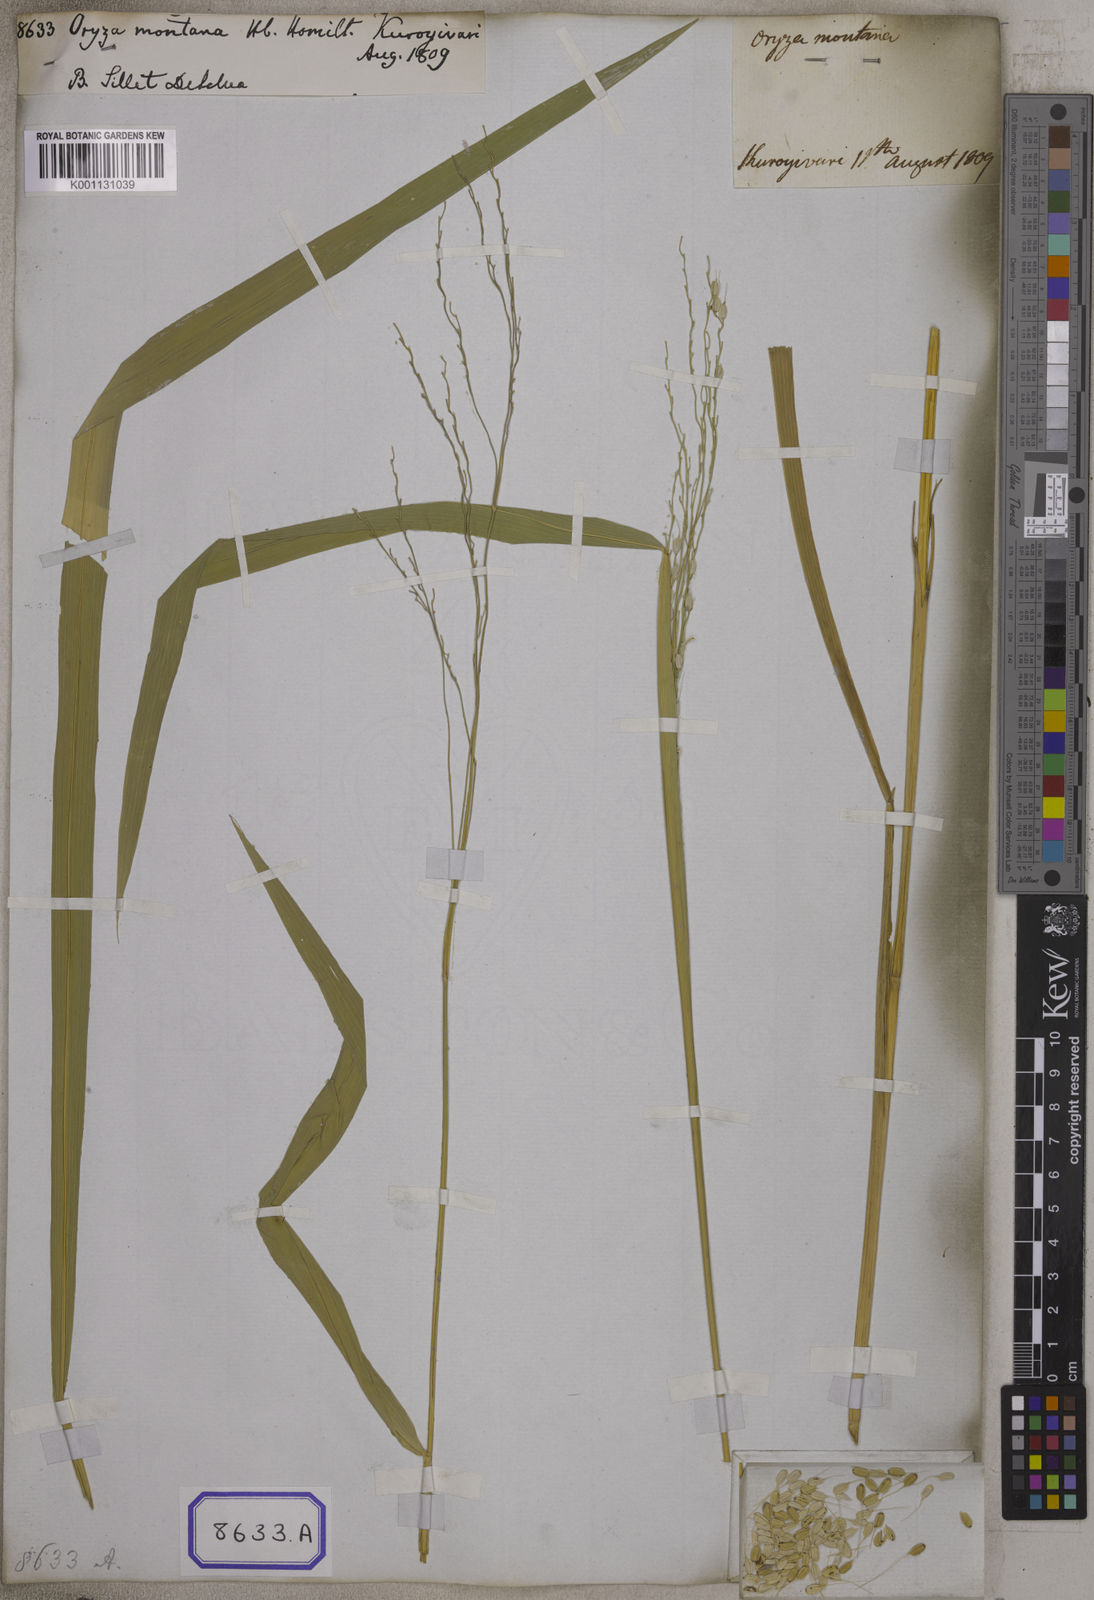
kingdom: Plantae
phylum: Tracheophyta
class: Liliopsida
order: Poales
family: Poaceae
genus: Oryza
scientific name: Oryza
